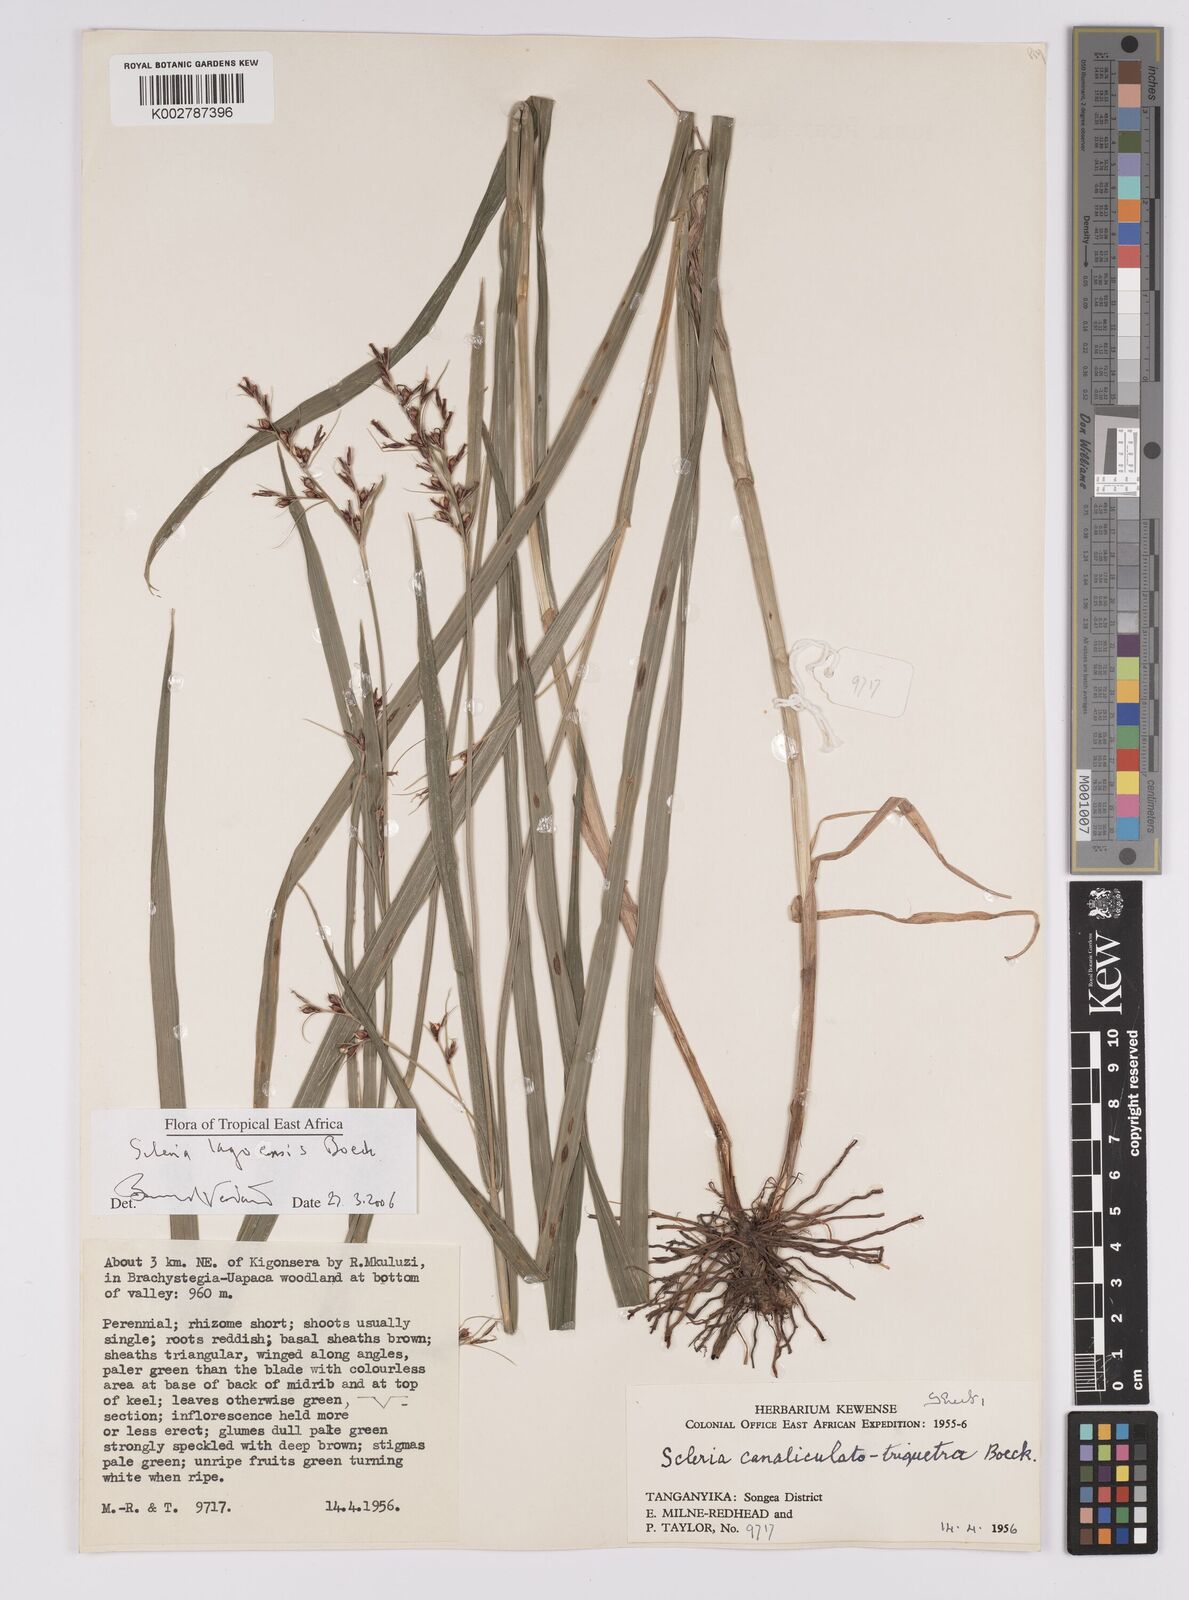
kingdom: Plantae
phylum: Tracheophyta
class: Liliopsida
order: Poales
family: Cyperaceae
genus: Scleria
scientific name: Scleria lagoensis
